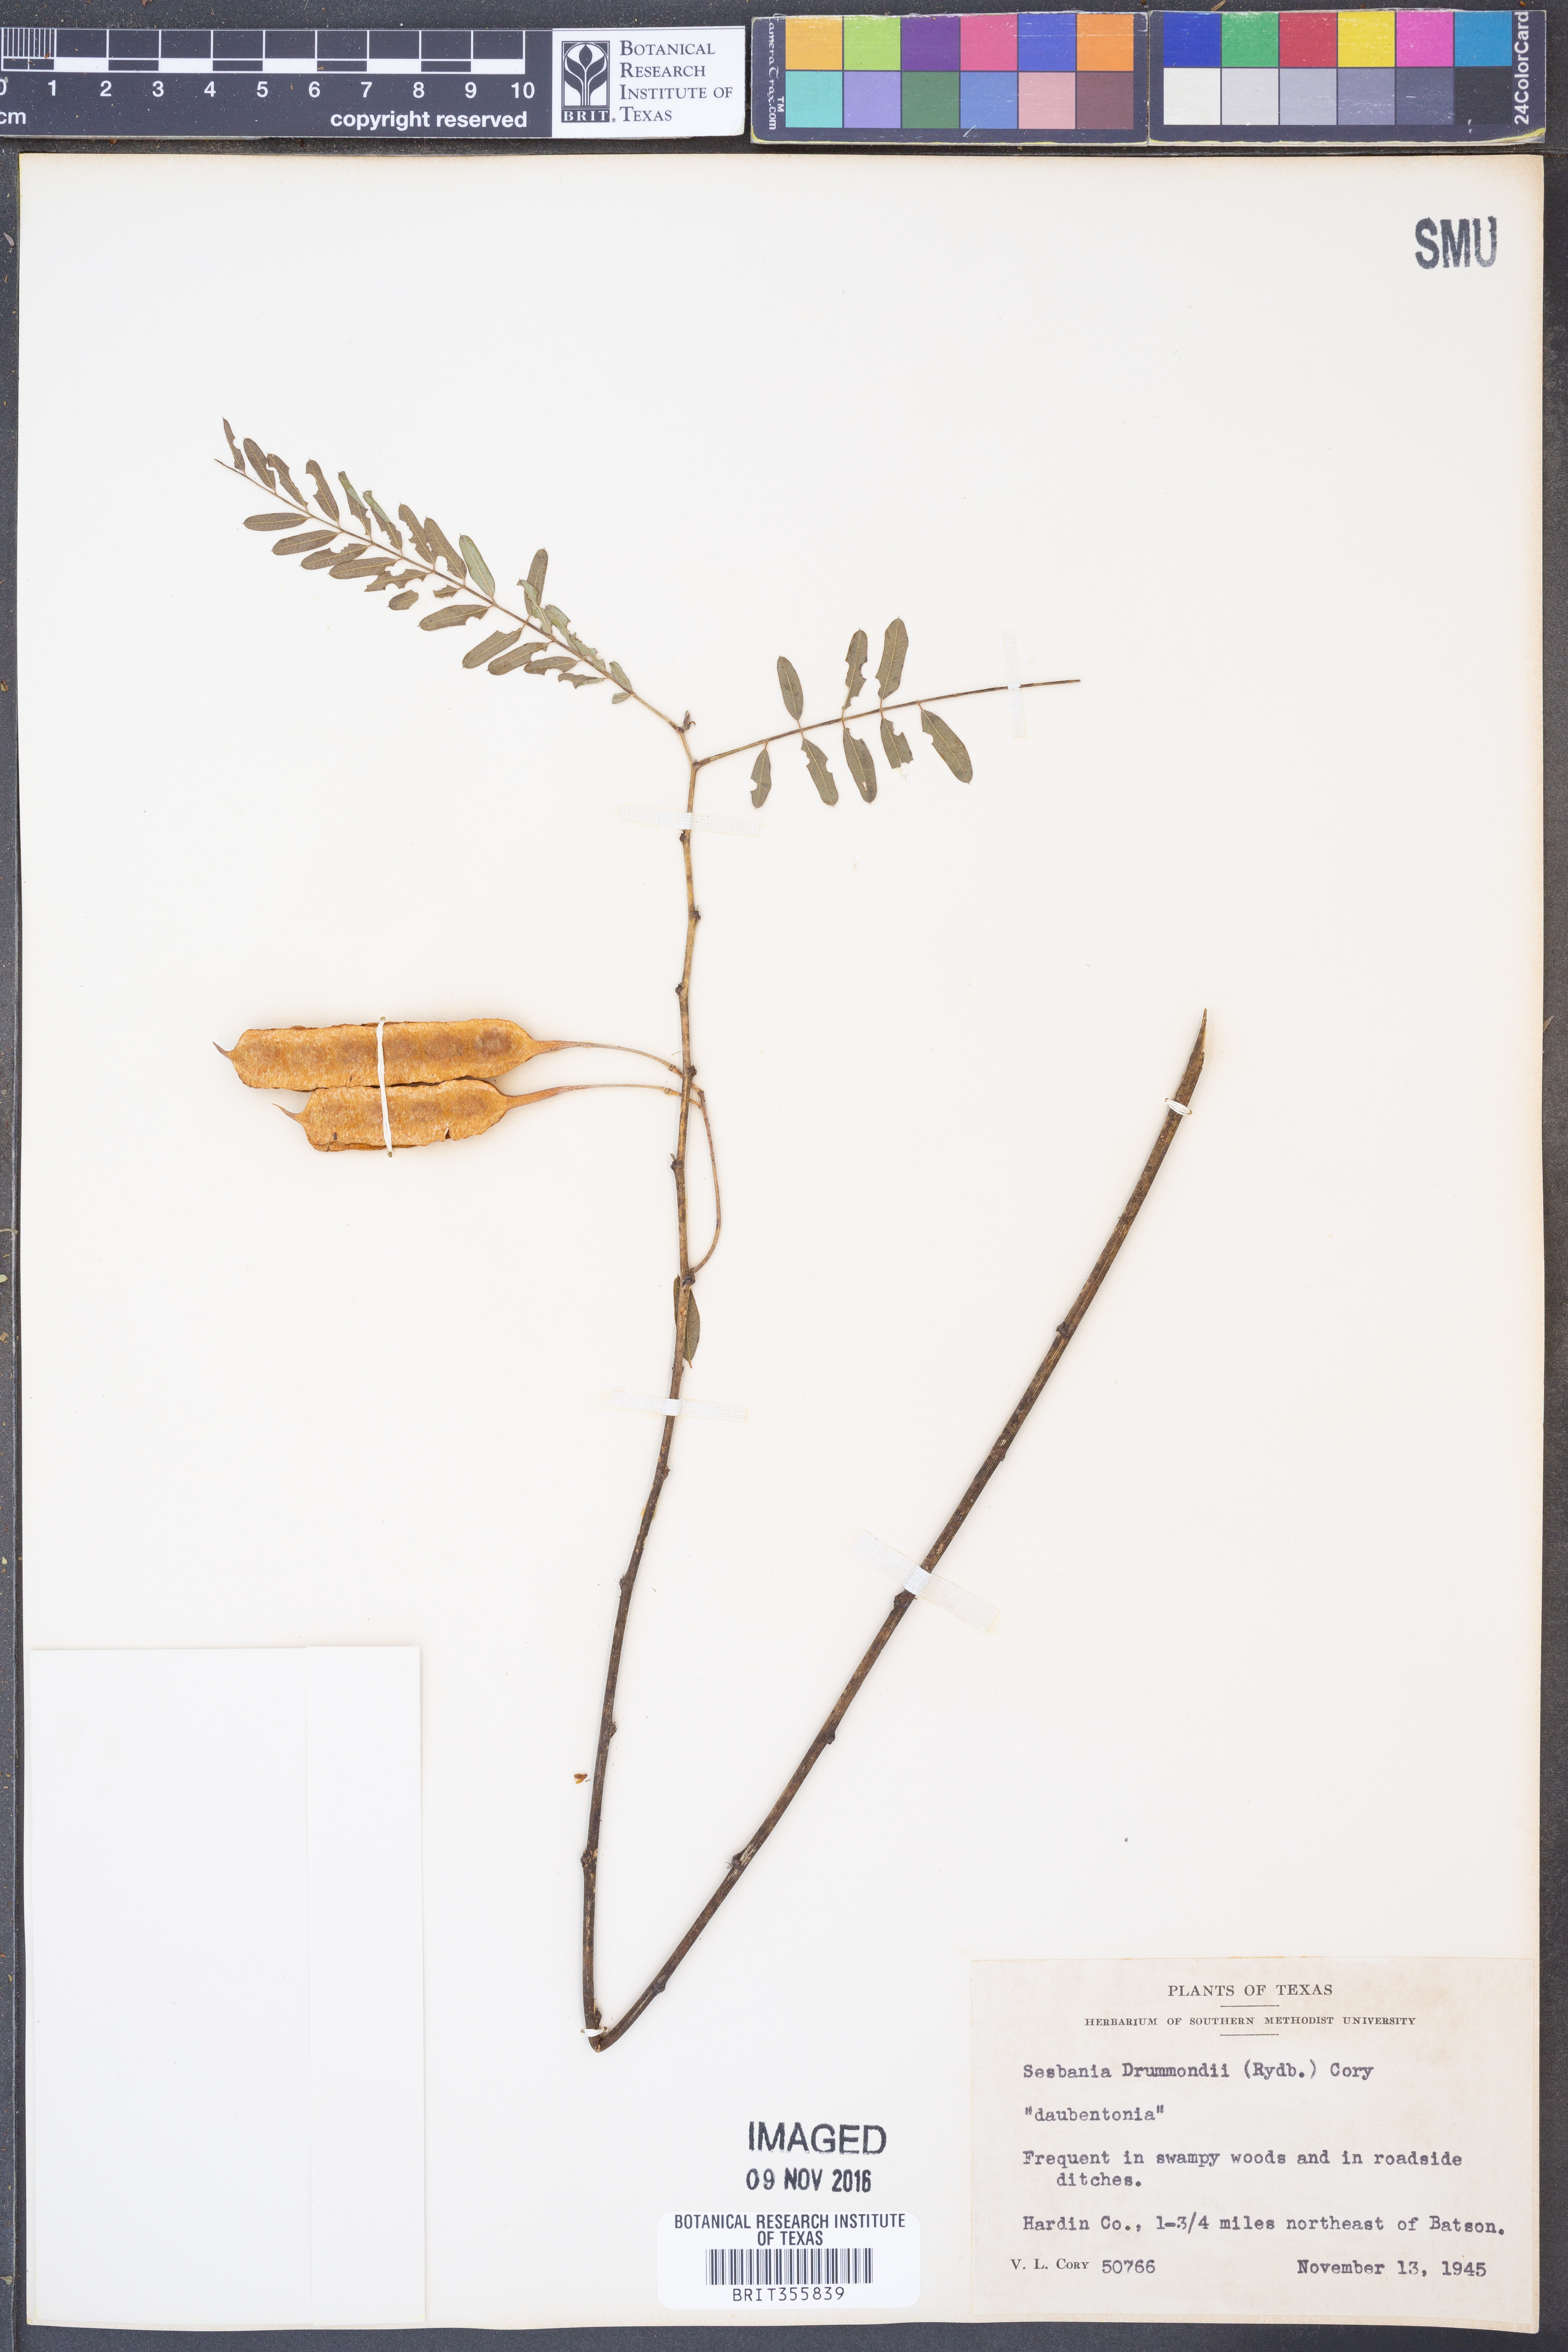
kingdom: Plantae
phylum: Tracheophyta
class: Magnoliopsida
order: Fabales
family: Fabaceae
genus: Sesbania
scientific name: Sesbania drummondii
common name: Poison-bean
